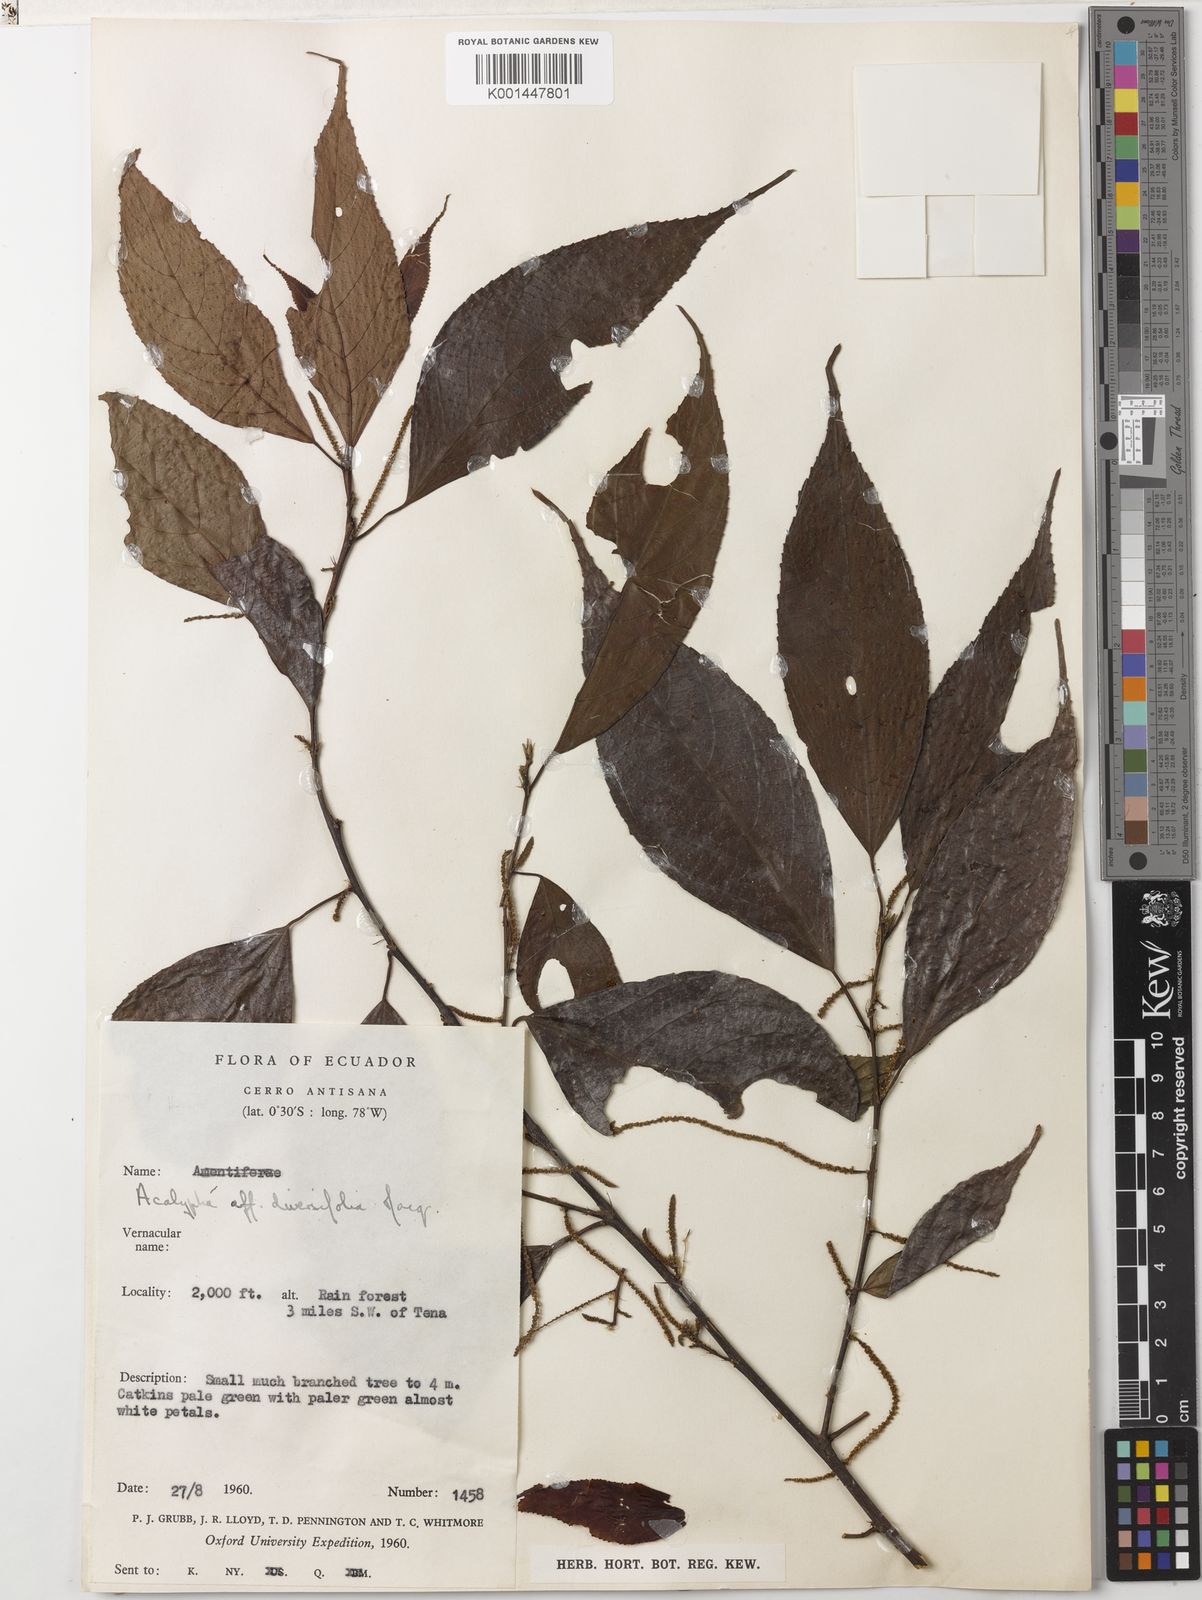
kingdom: Plantae
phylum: Tracheophyta
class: Magnoliopsida
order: Malpighiales
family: Euphorbiaceae
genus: Acalypha
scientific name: Acalypha diversifolia
